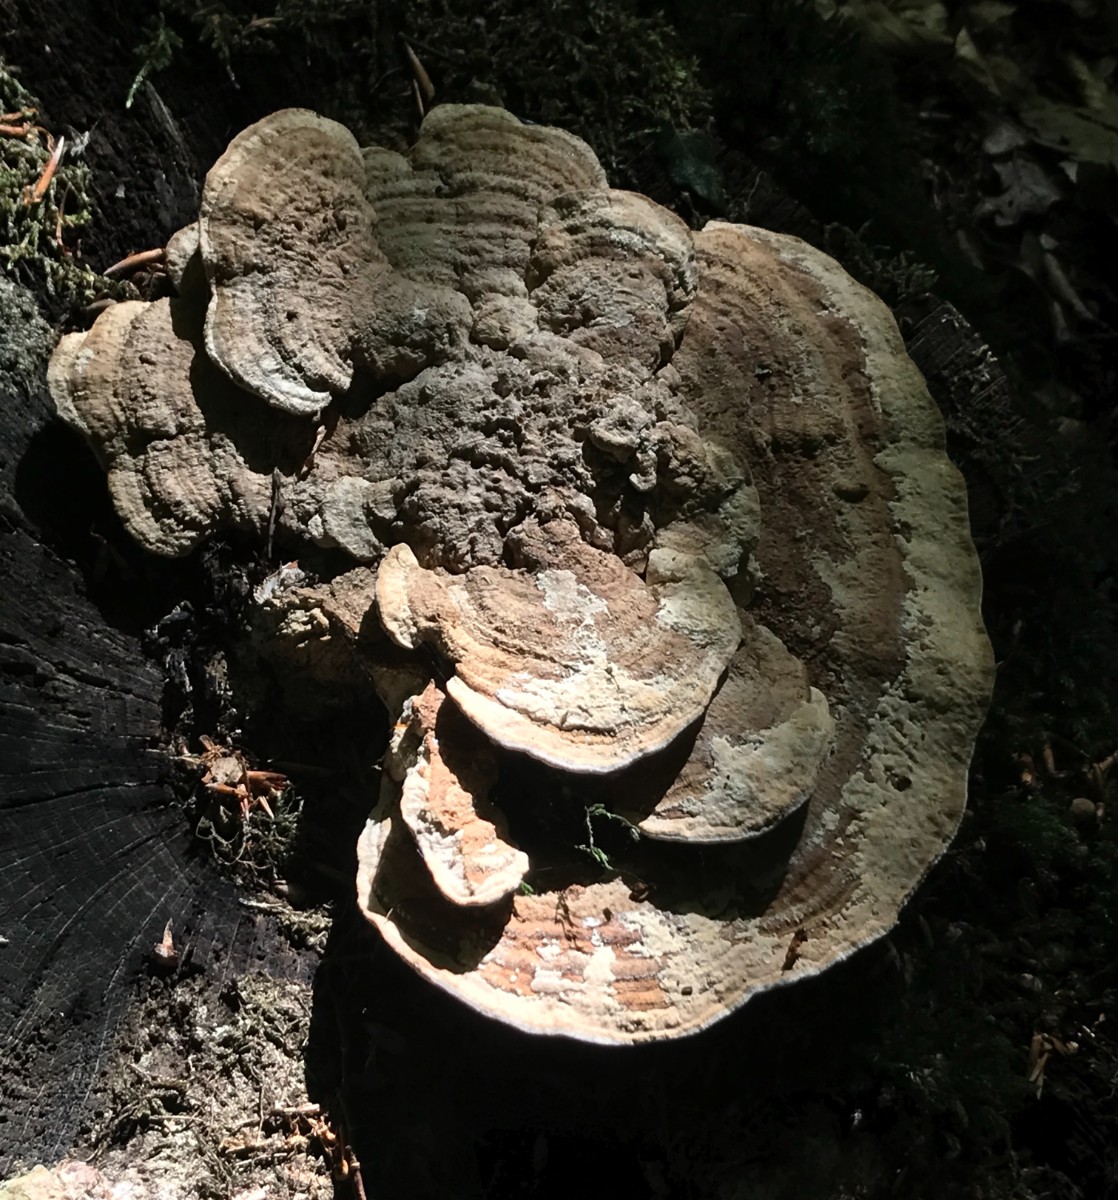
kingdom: Fungi
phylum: Basidiomycota
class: Agaricomycetes
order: Polyporales
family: Fomitopsidaceae
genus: Daedalea
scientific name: Daedalea quercina
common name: ege-labyrintsvamp
